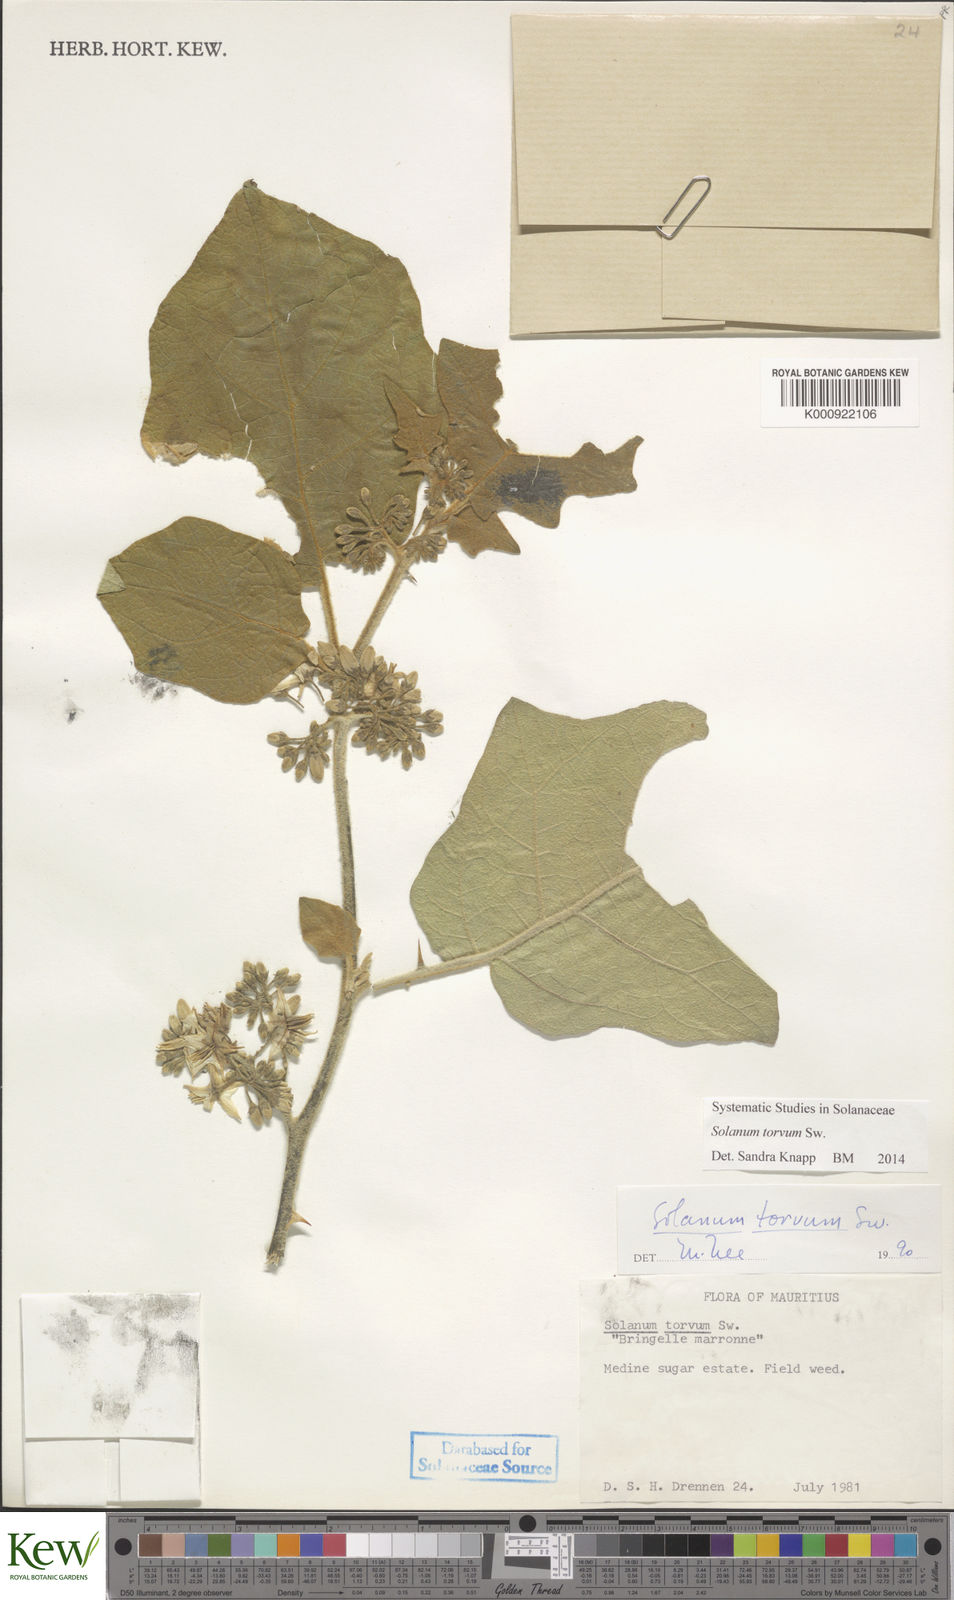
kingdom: Plantae
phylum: Tracheophyta
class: Magnoliopsida
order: Solanales
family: Solanaceae
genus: Solanum
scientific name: Solanum torvum
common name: Turkey berry
